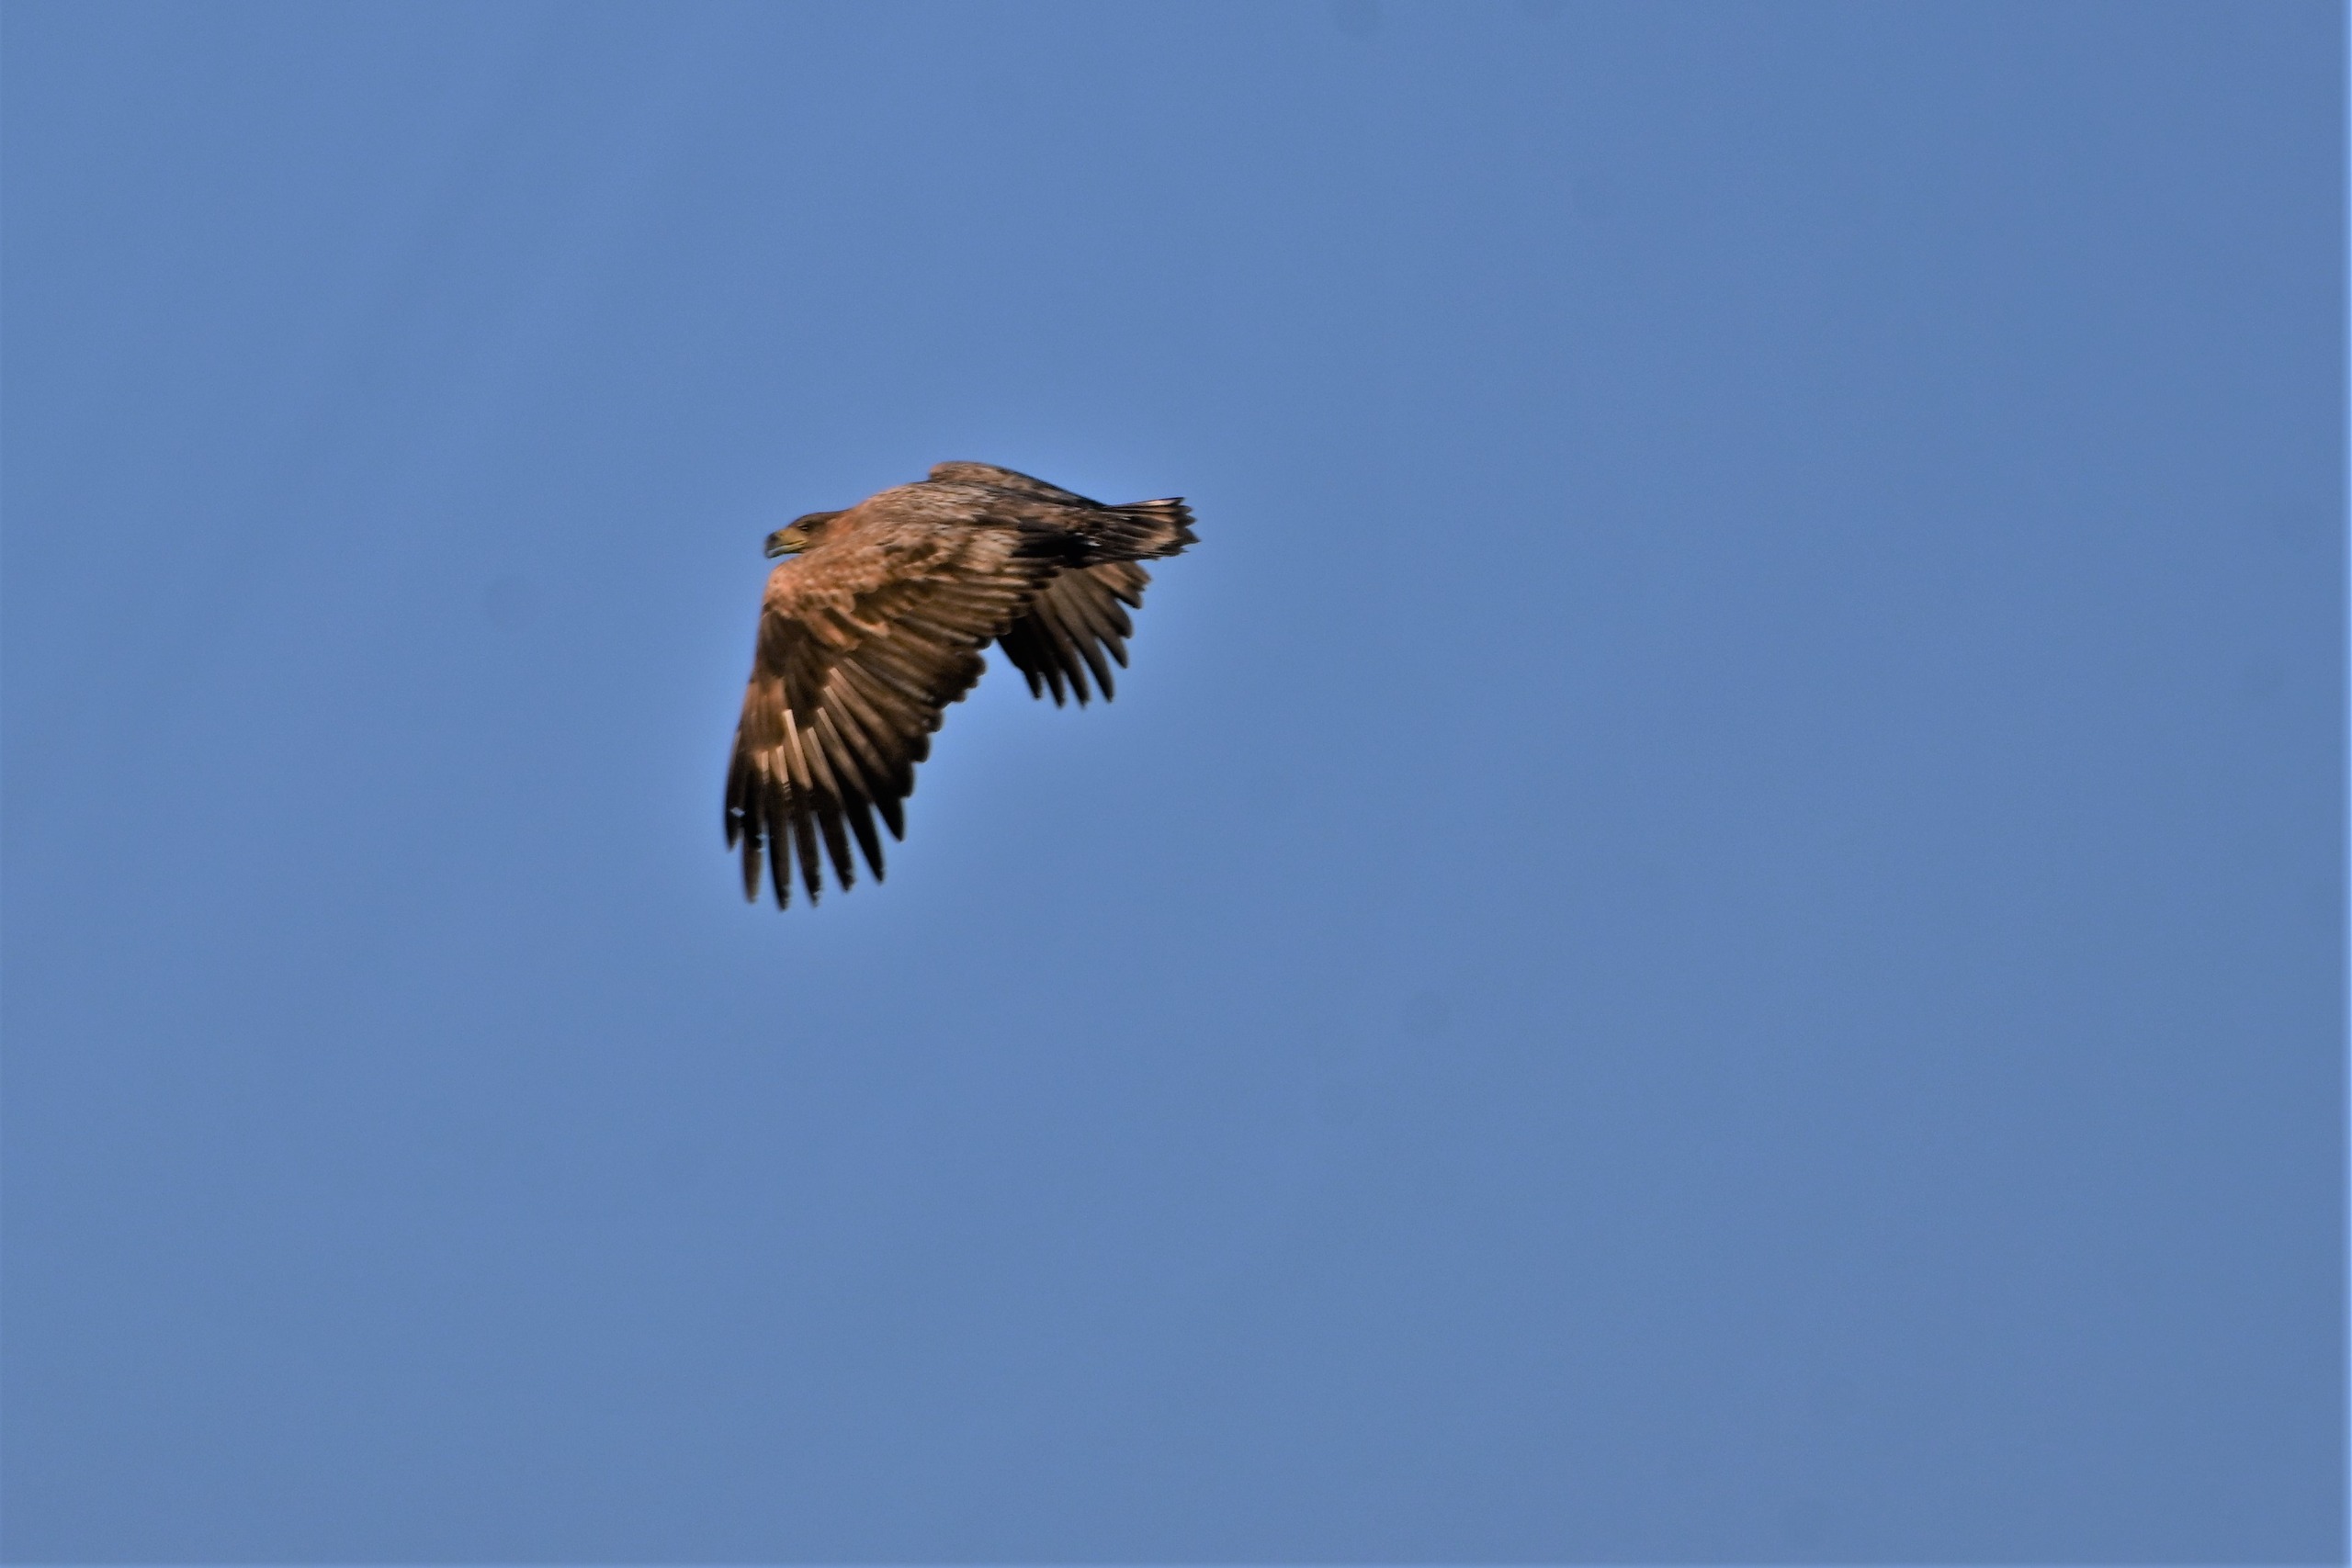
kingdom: Animalia
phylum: Chordata
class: Aves
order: Accipitriformes
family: Accipitridae
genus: Haliaeetus
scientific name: Haliaeetus albicilla
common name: Havørn
